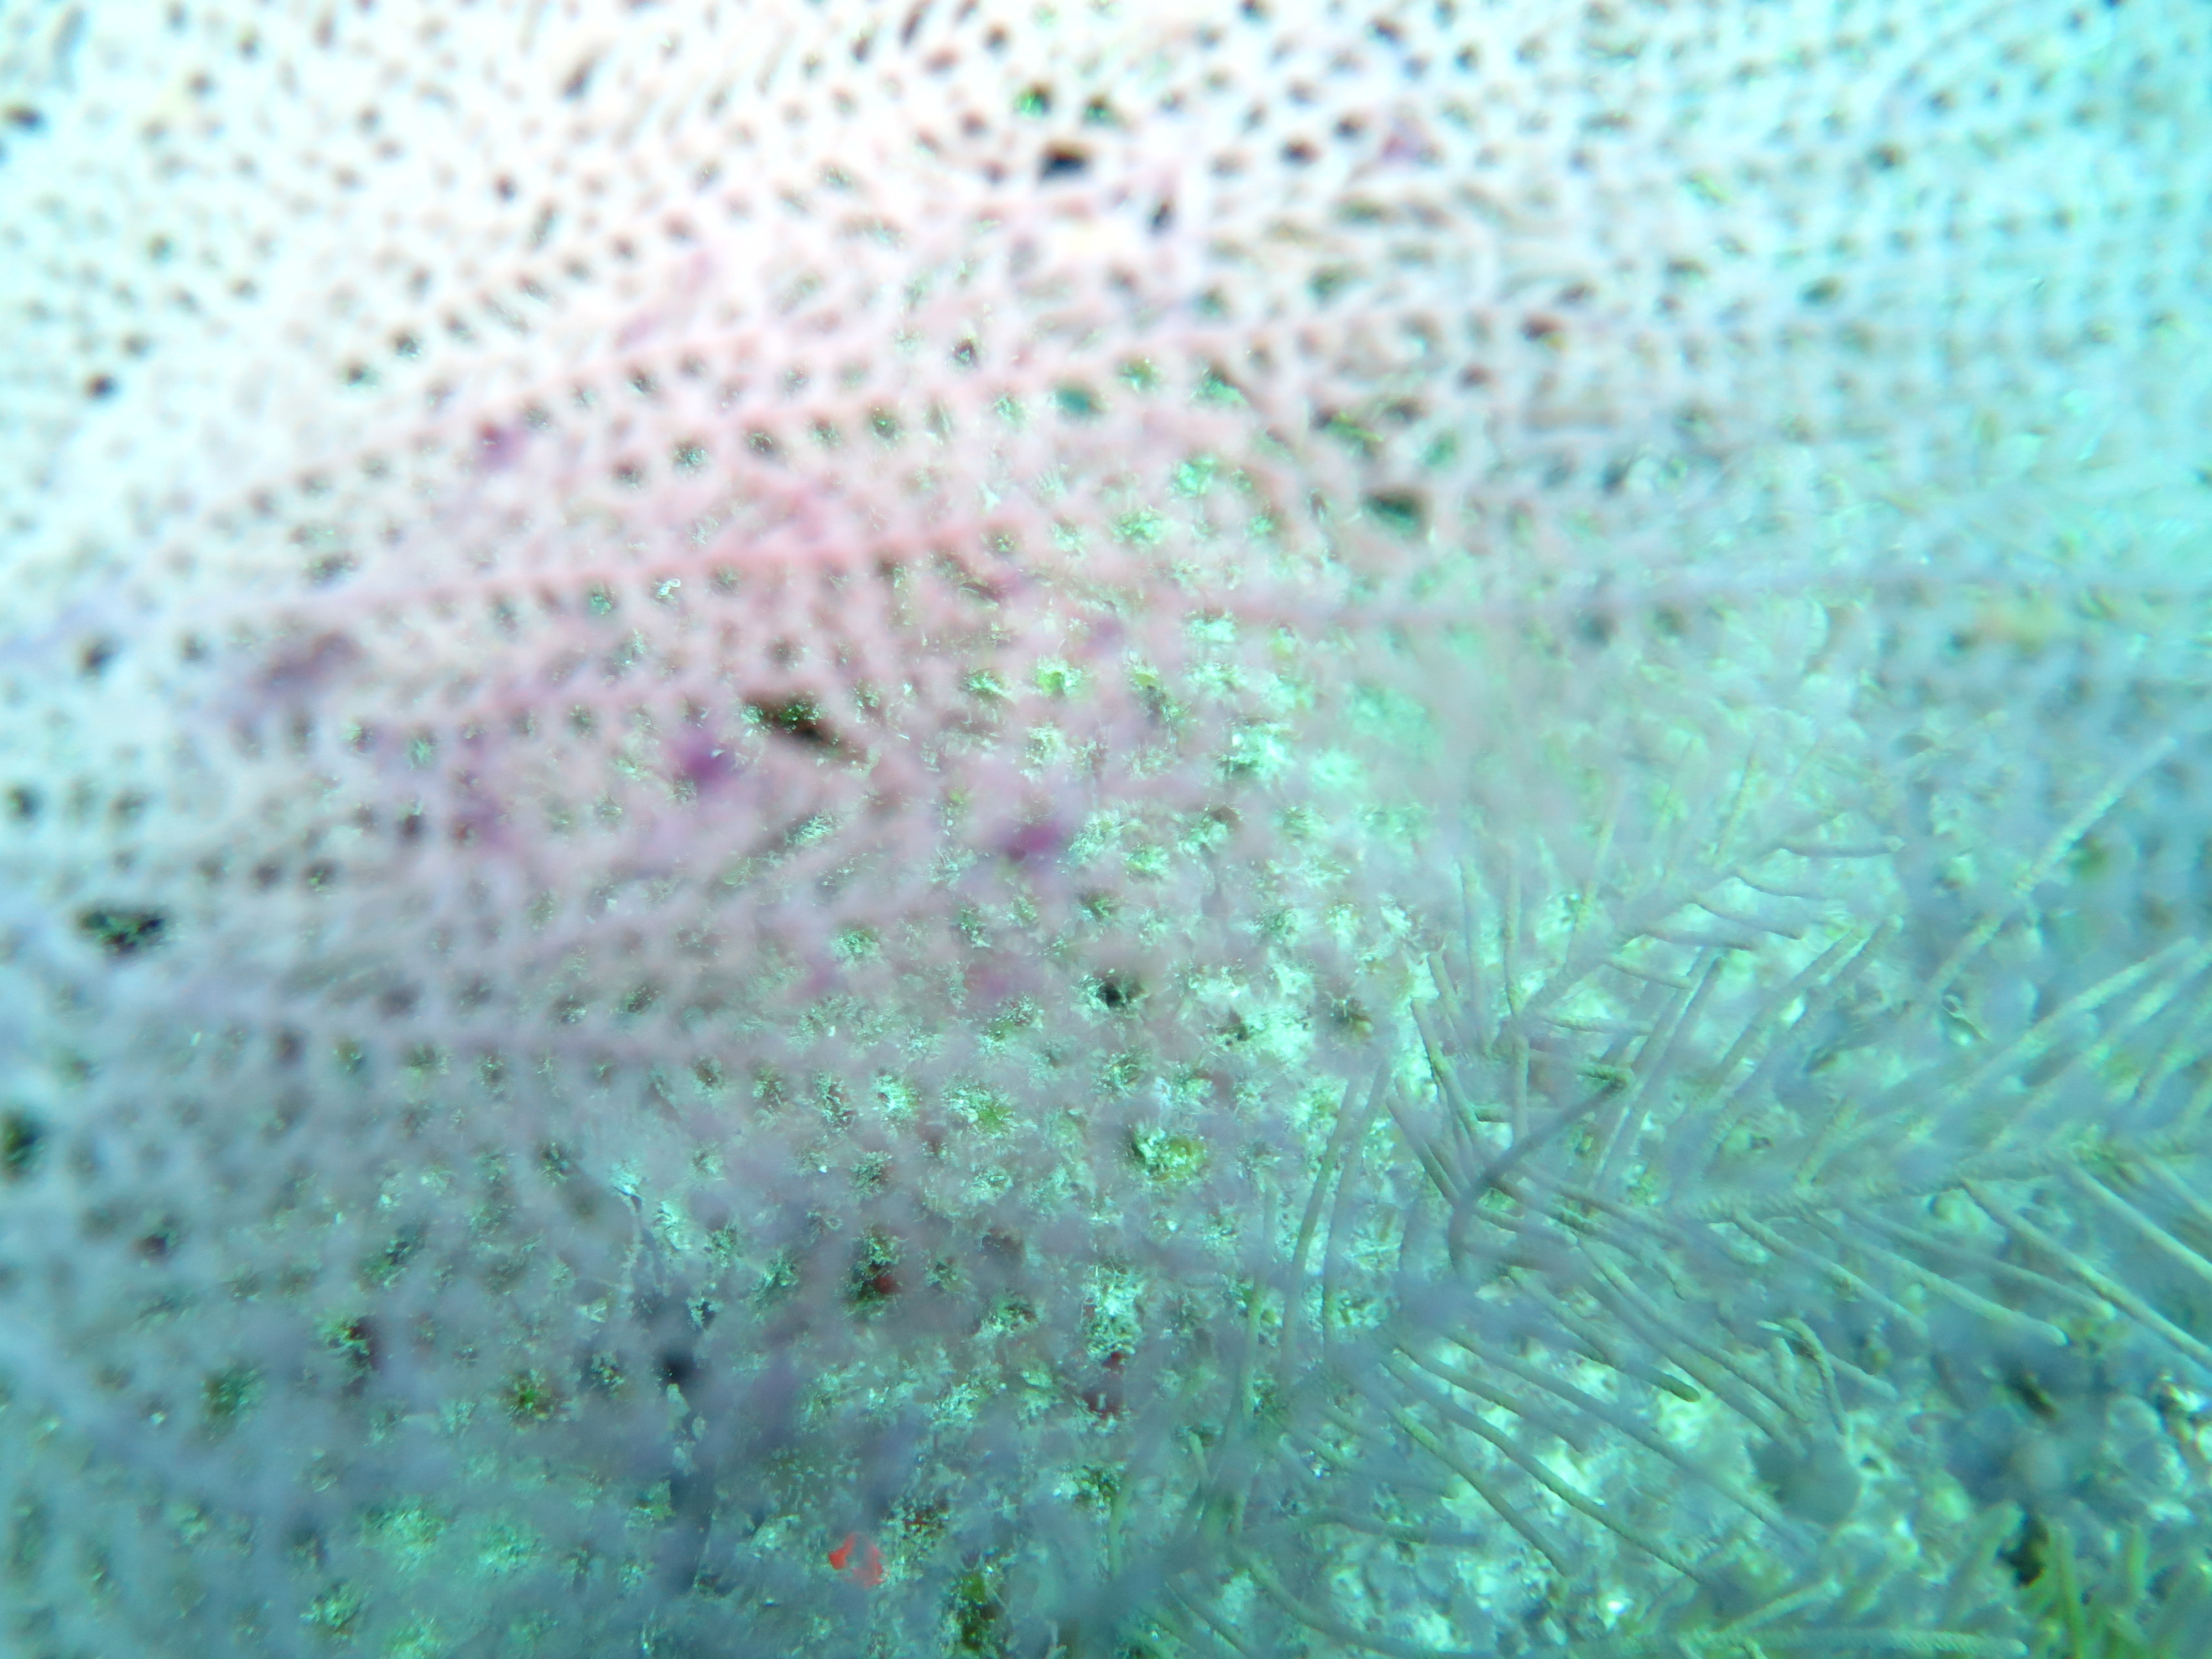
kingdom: Animalia
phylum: Cnidaria
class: Anthozoa
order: Malacalcyonacea
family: Gorgoniidae
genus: Gorgonia
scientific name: Gorgonia ventalina
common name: Common sea fan
